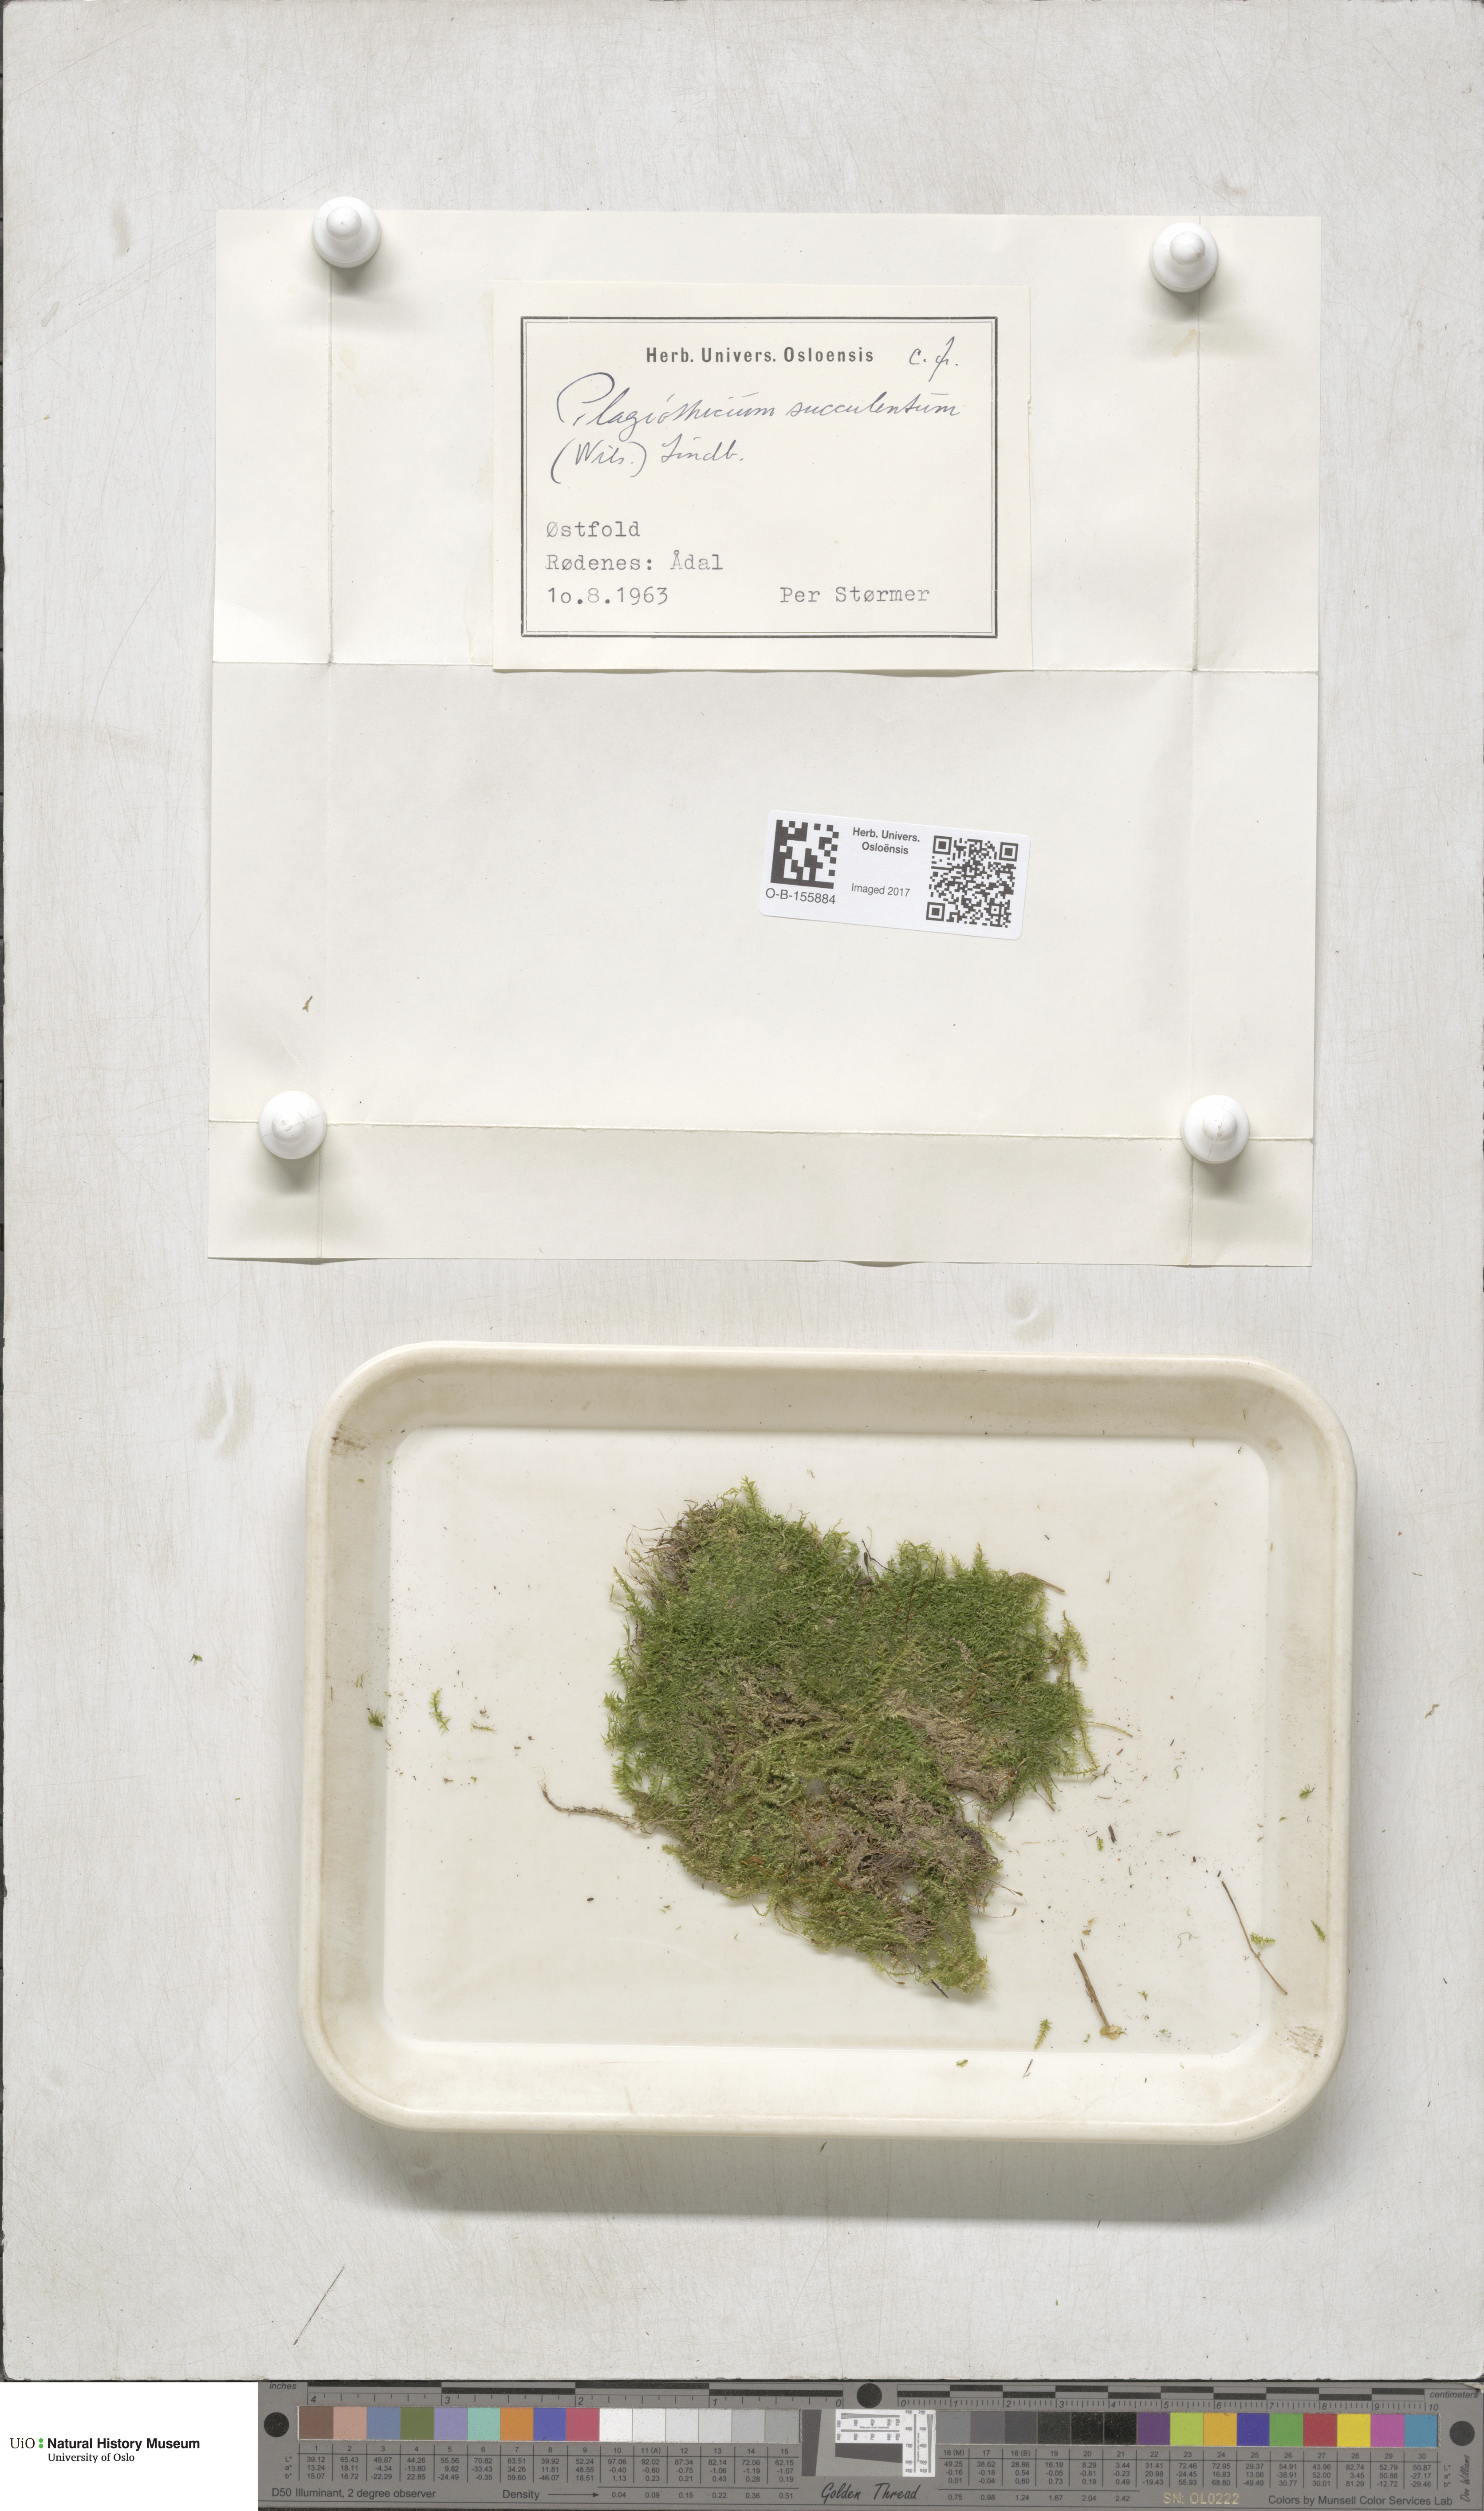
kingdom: Plantae
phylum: Bryophyta
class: Bryopsida
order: Hypnales
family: Plagiotheciaceae
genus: Plagiothecium
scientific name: Plagiothecium succulentum
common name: Juicy silk-moss
